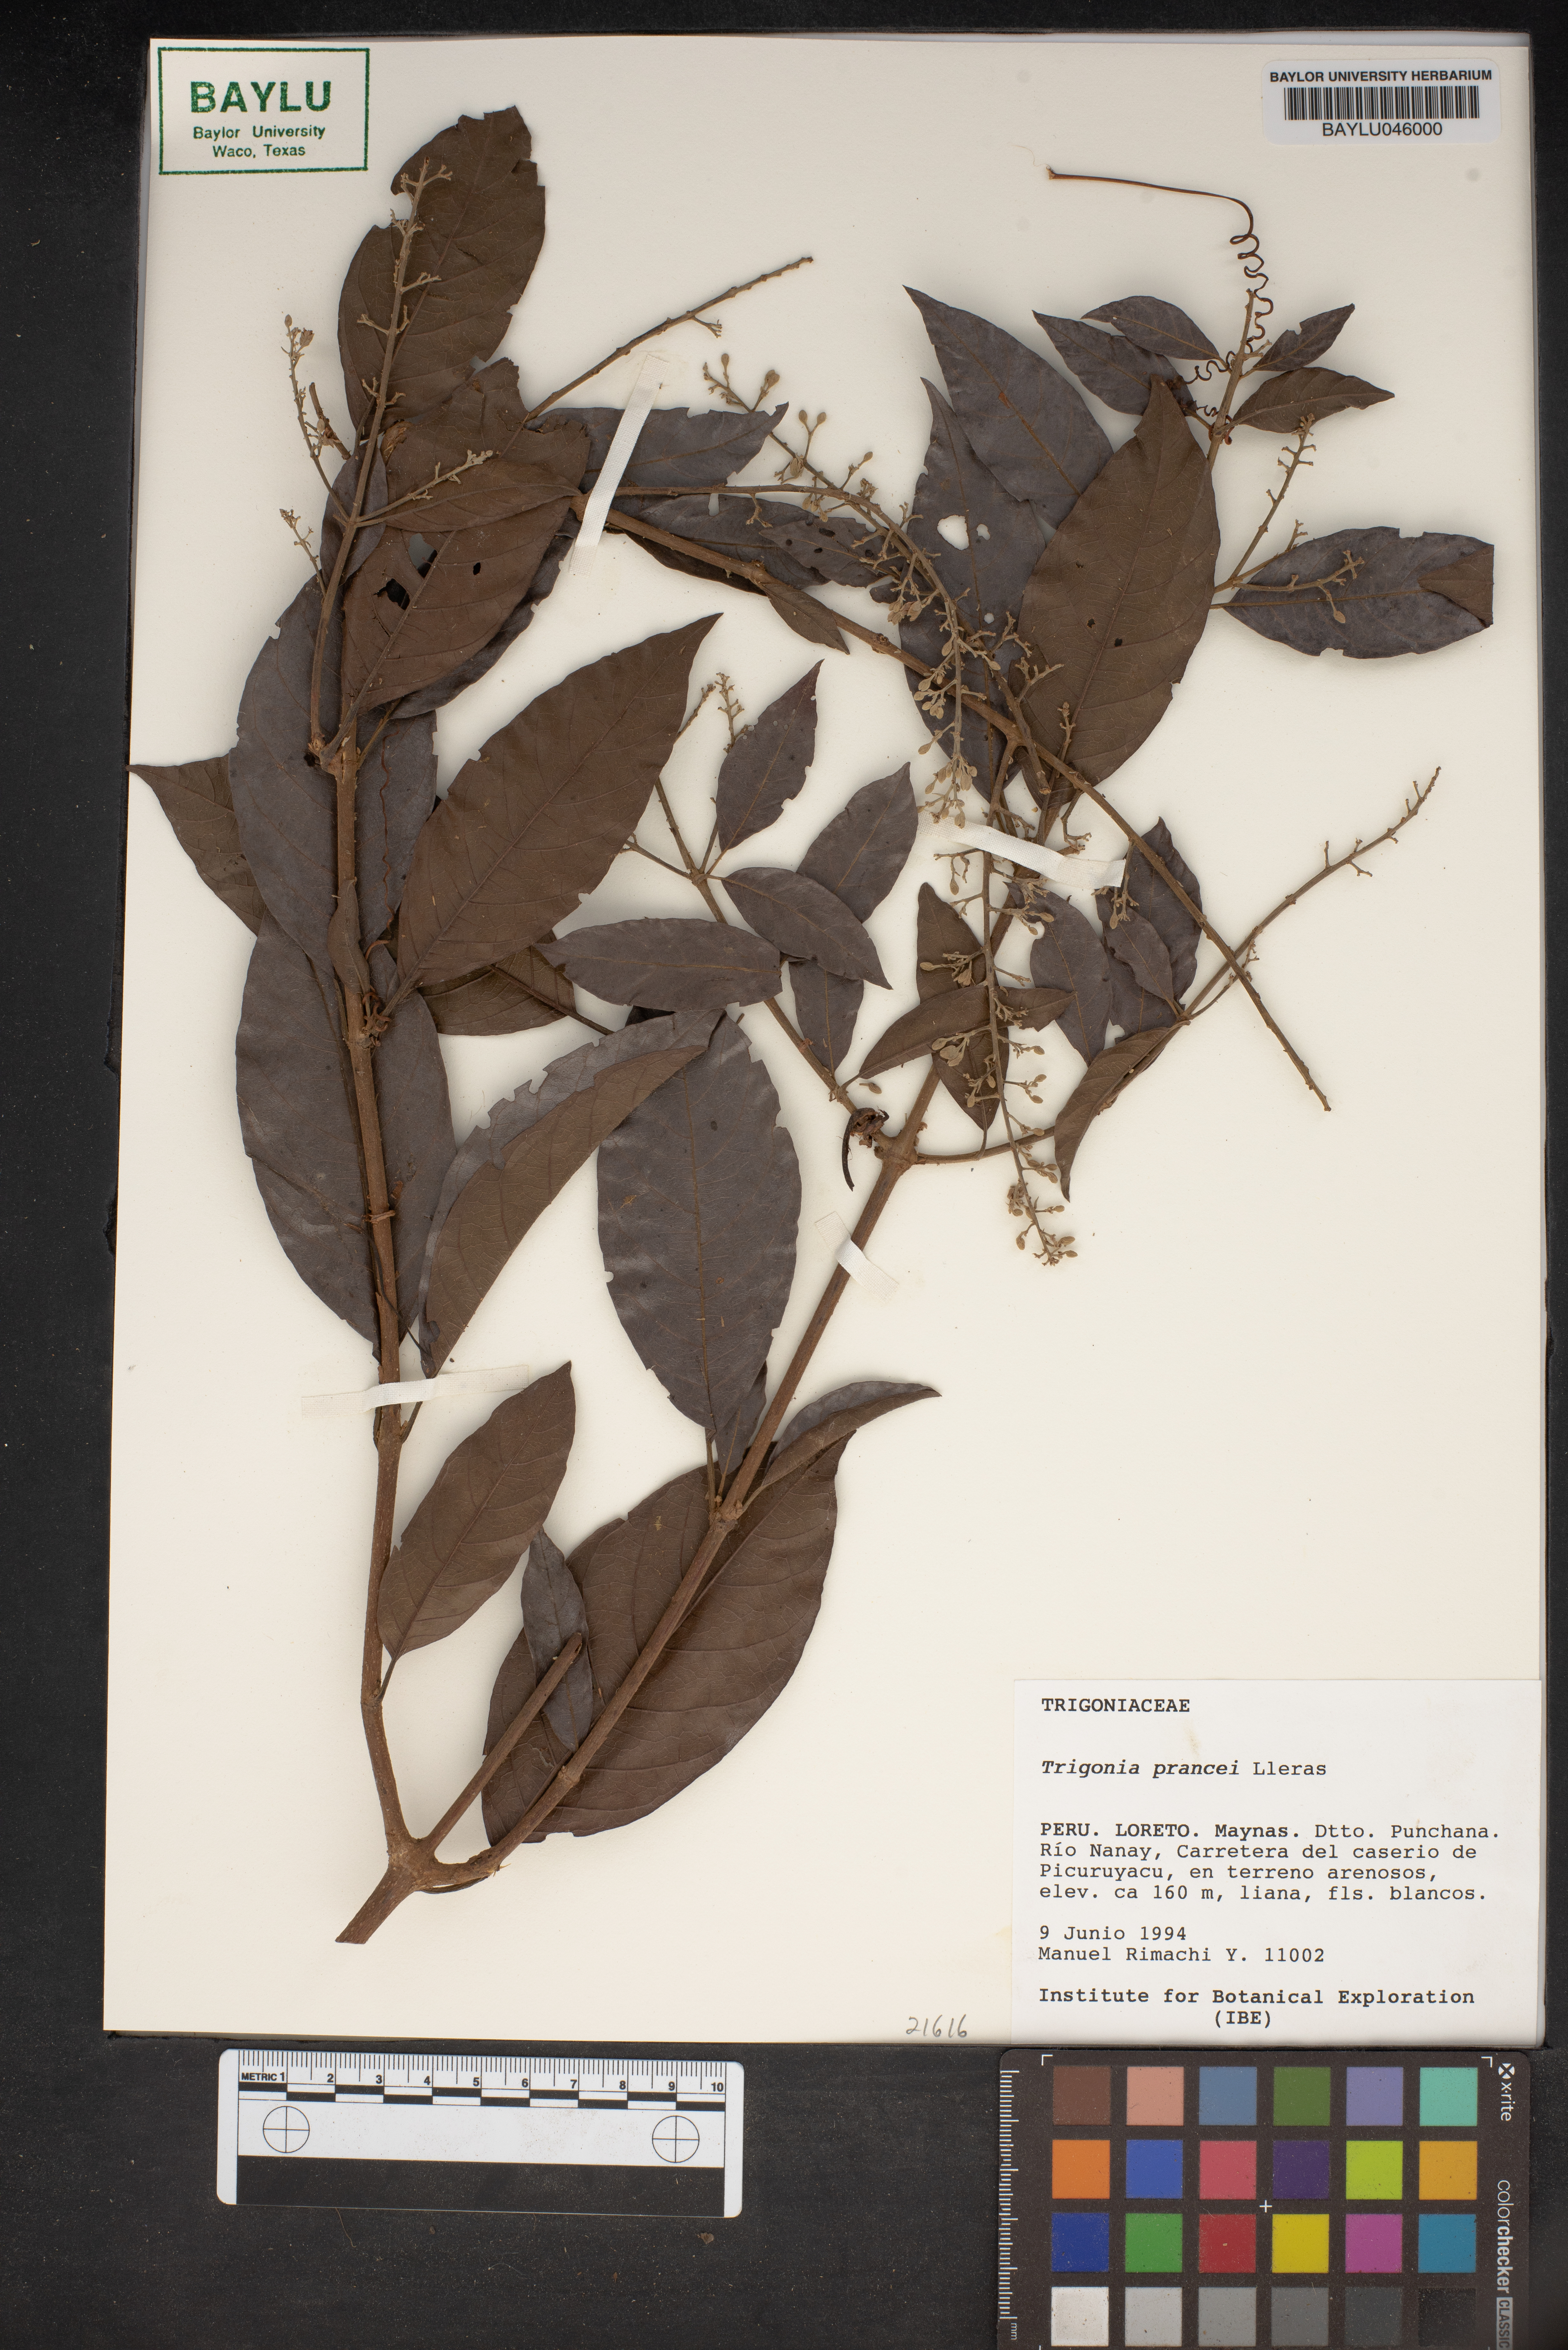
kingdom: Plantae
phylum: Tracheophyta
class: Magnoliopsida
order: Malpighiales
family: Trigoniaceae
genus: Trigonia
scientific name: Trigonia prancei
